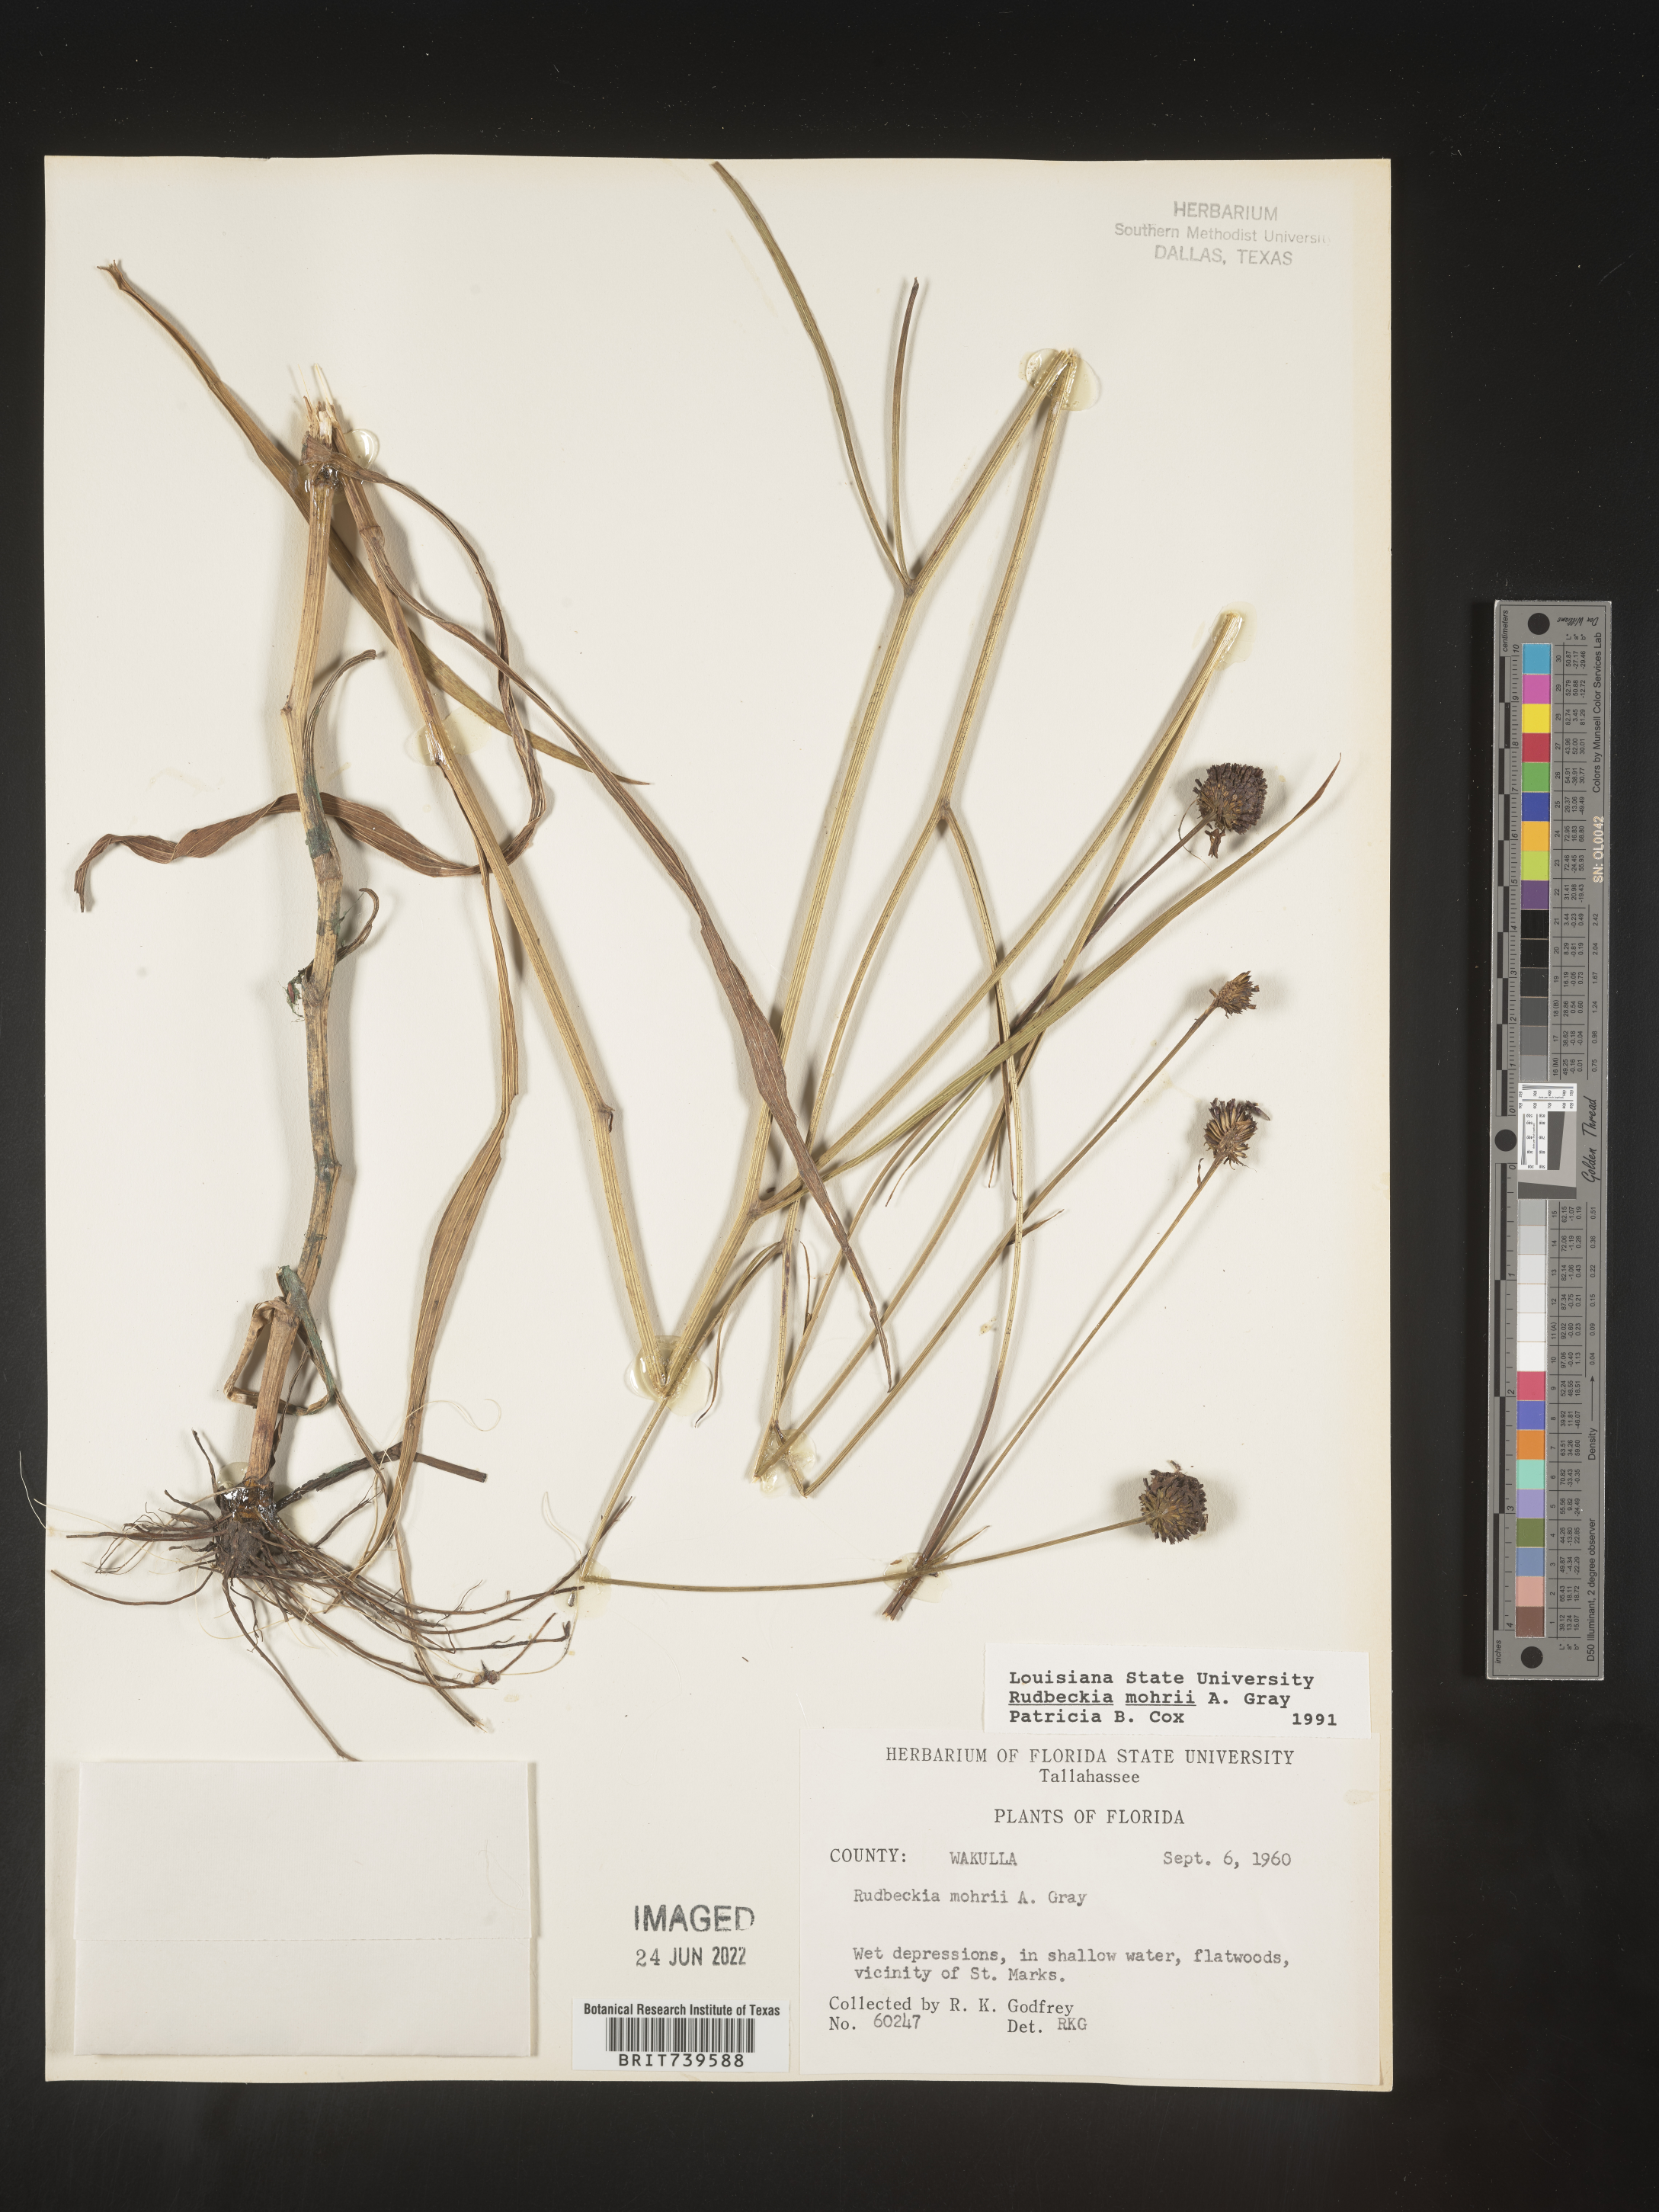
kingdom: Plantae
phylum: Tracheophyta
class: Magnoliopsida
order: Asterales
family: Asteraceae
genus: Rudbeckia
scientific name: Rudbeckia mohrii
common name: Grassy coneflower
